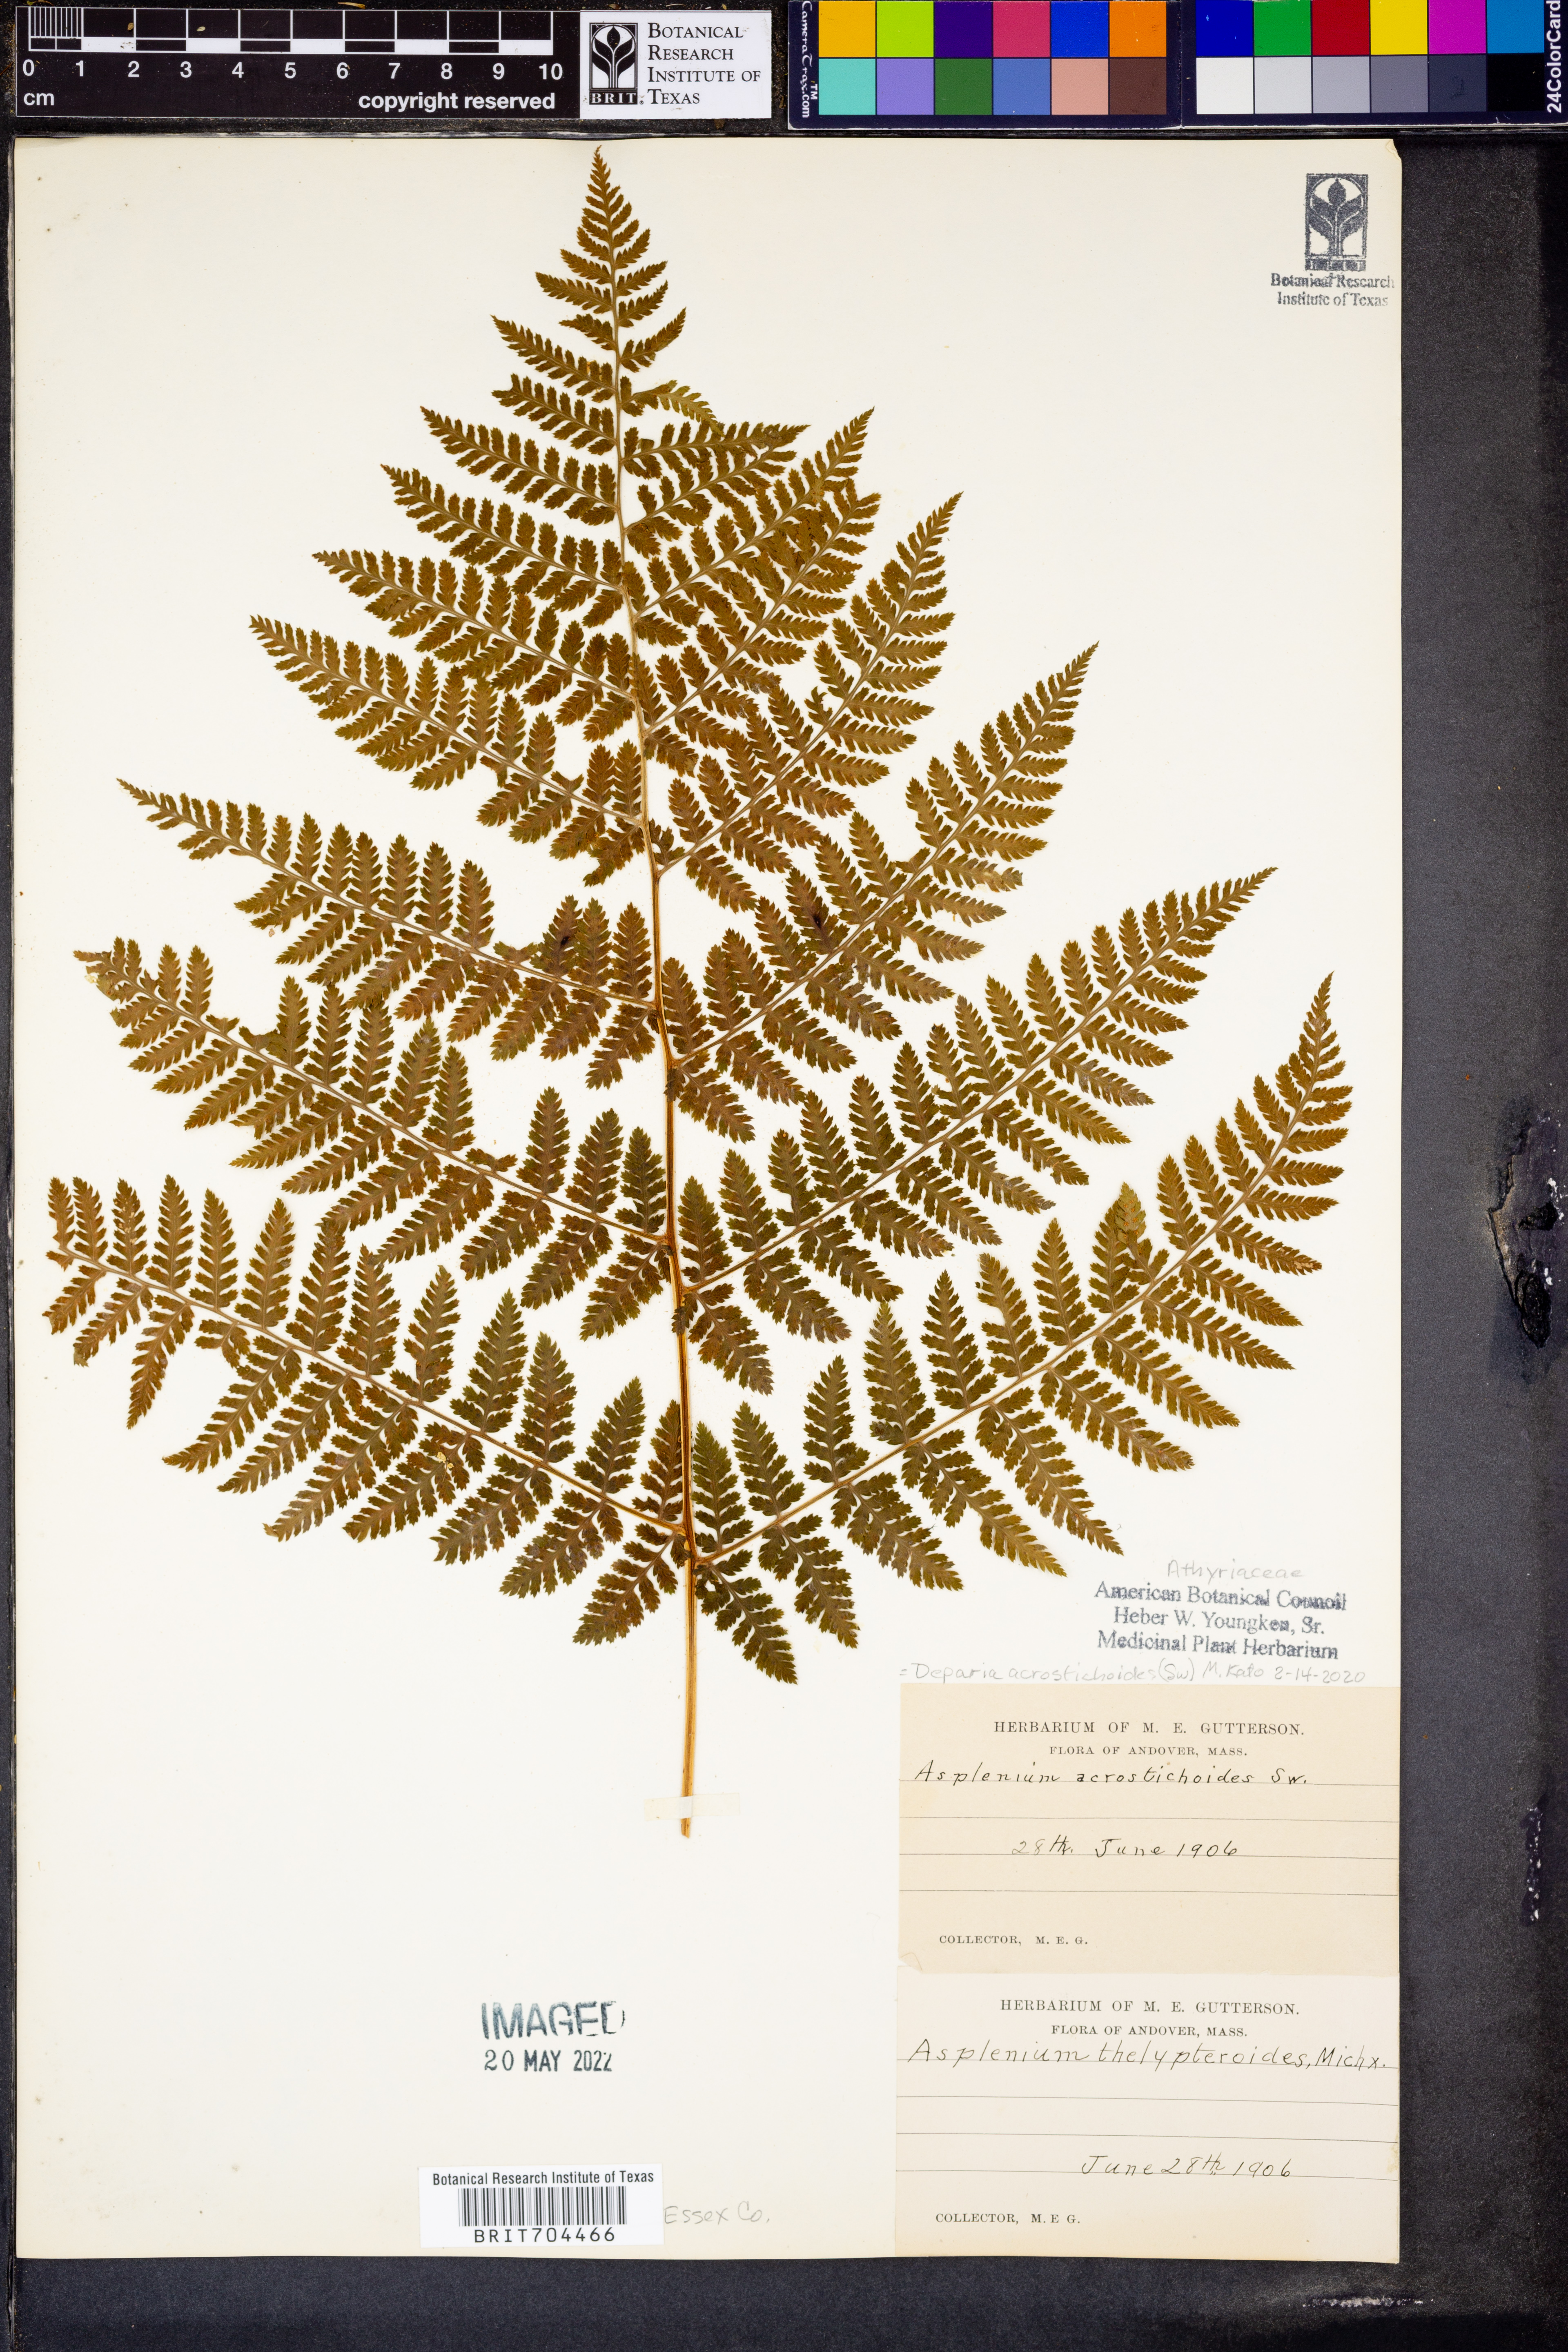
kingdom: Plantae
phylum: Tracheophyta
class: Polypodiopsida
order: Polypodiales
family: Athyriaceae
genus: Deparia
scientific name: Deparia acrostichoides
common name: Silver false spleenwort
